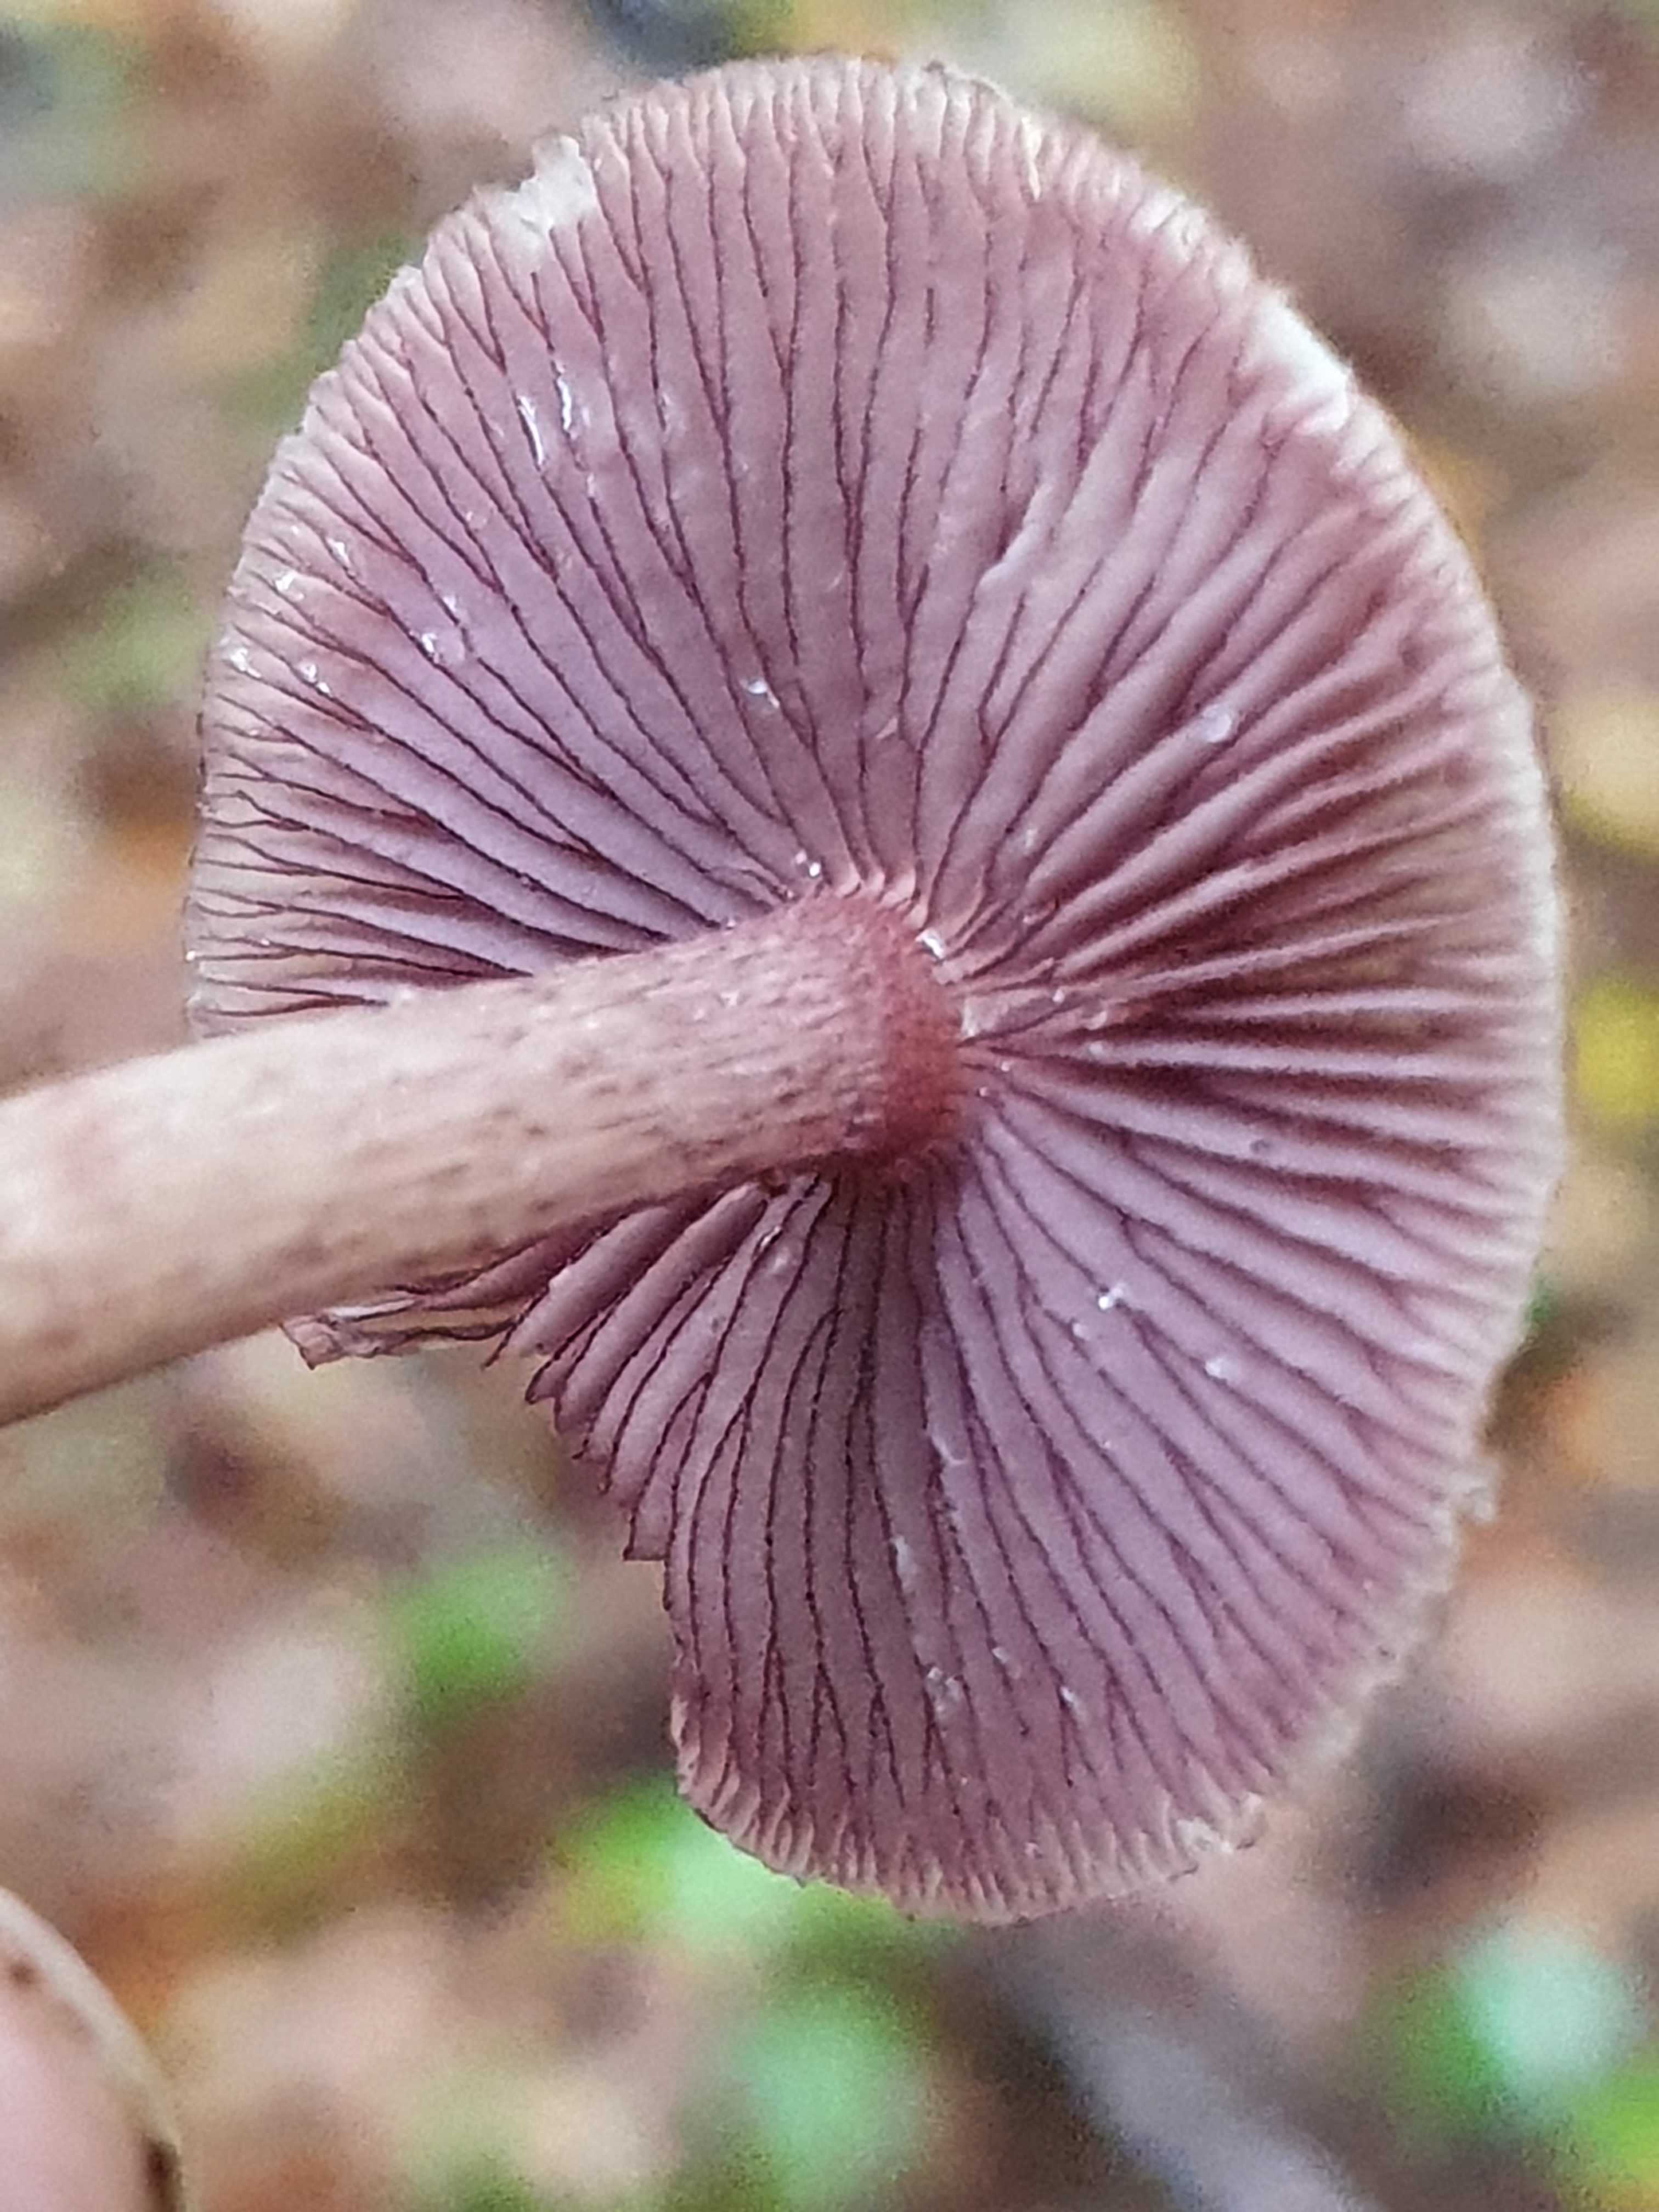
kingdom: Fungi
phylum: Basidiomycota
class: Agaricomycetes
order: Agaricales
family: Mycenaceae
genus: Mycena
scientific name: Mycena pelianthina
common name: mørkbladet huesvamp
